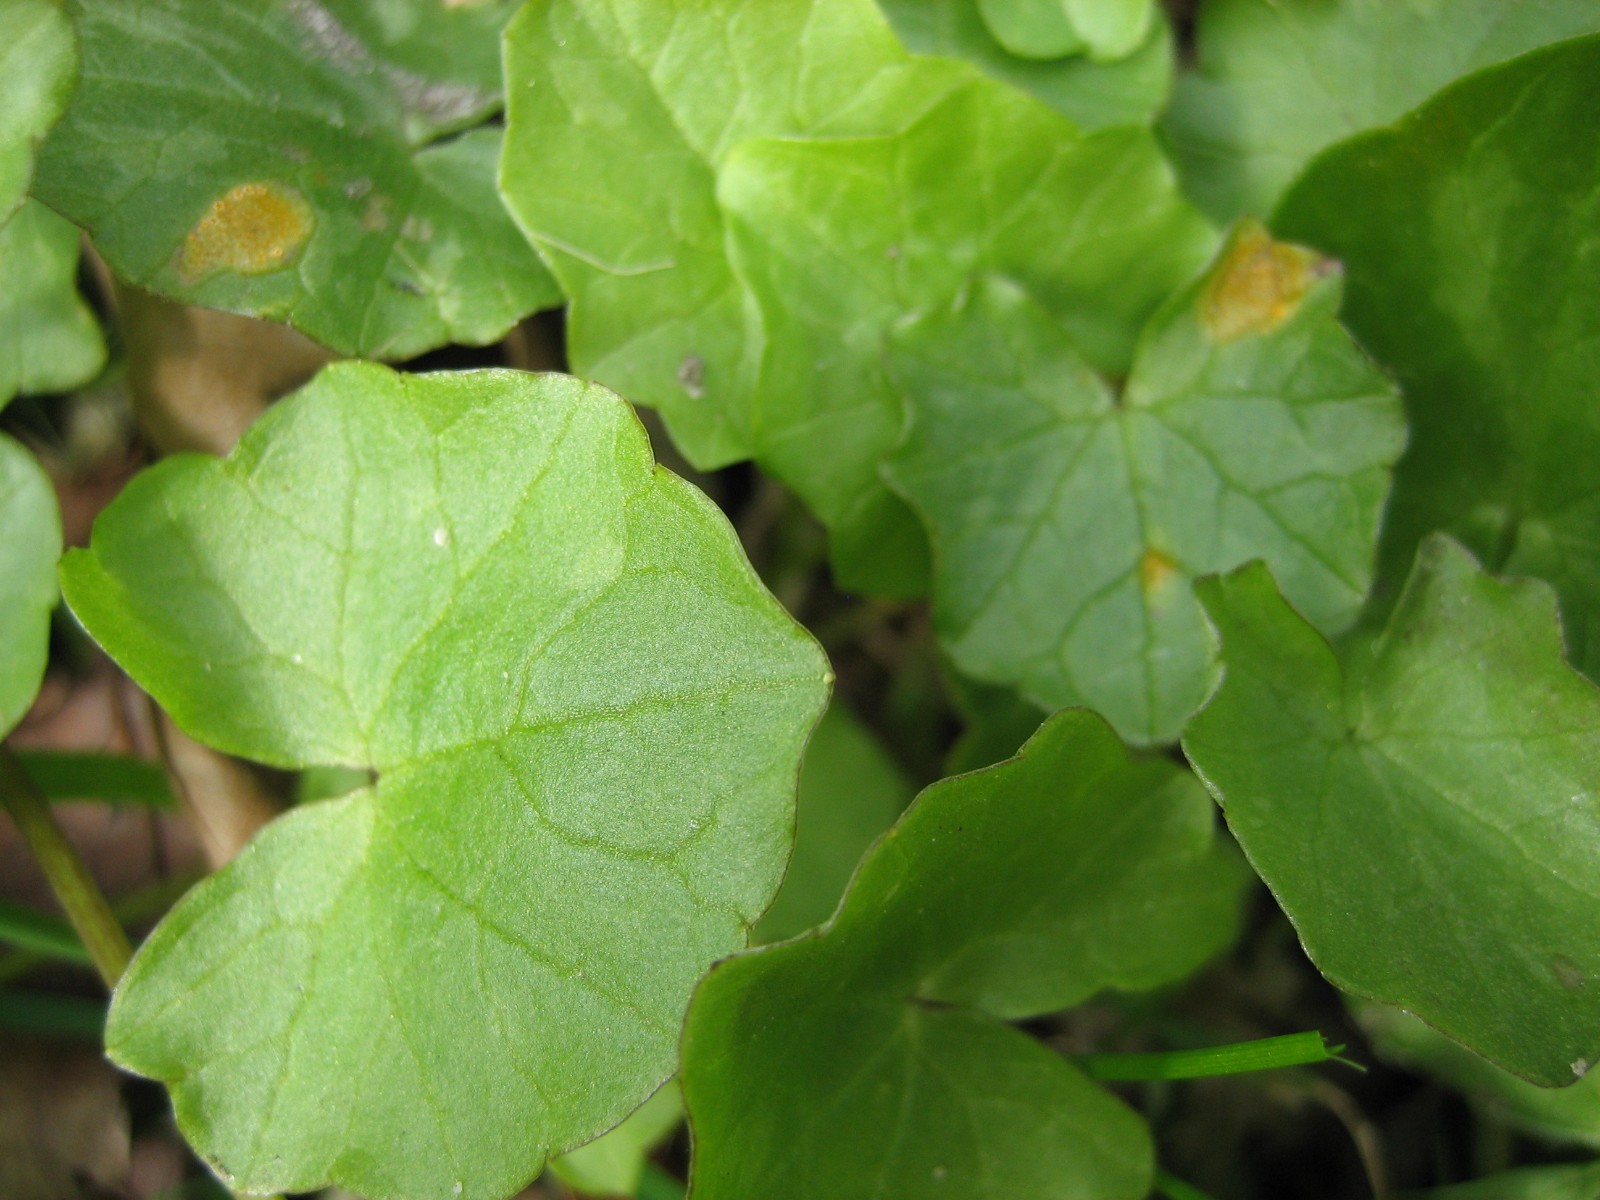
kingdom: Fungi
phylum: Basidiomycota
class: Pucciniomycetes
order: Pucciniales
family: Pucciniaceae
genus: Uromyces
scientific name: Uromyces dactylidis
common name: ranunkel-encellerust
